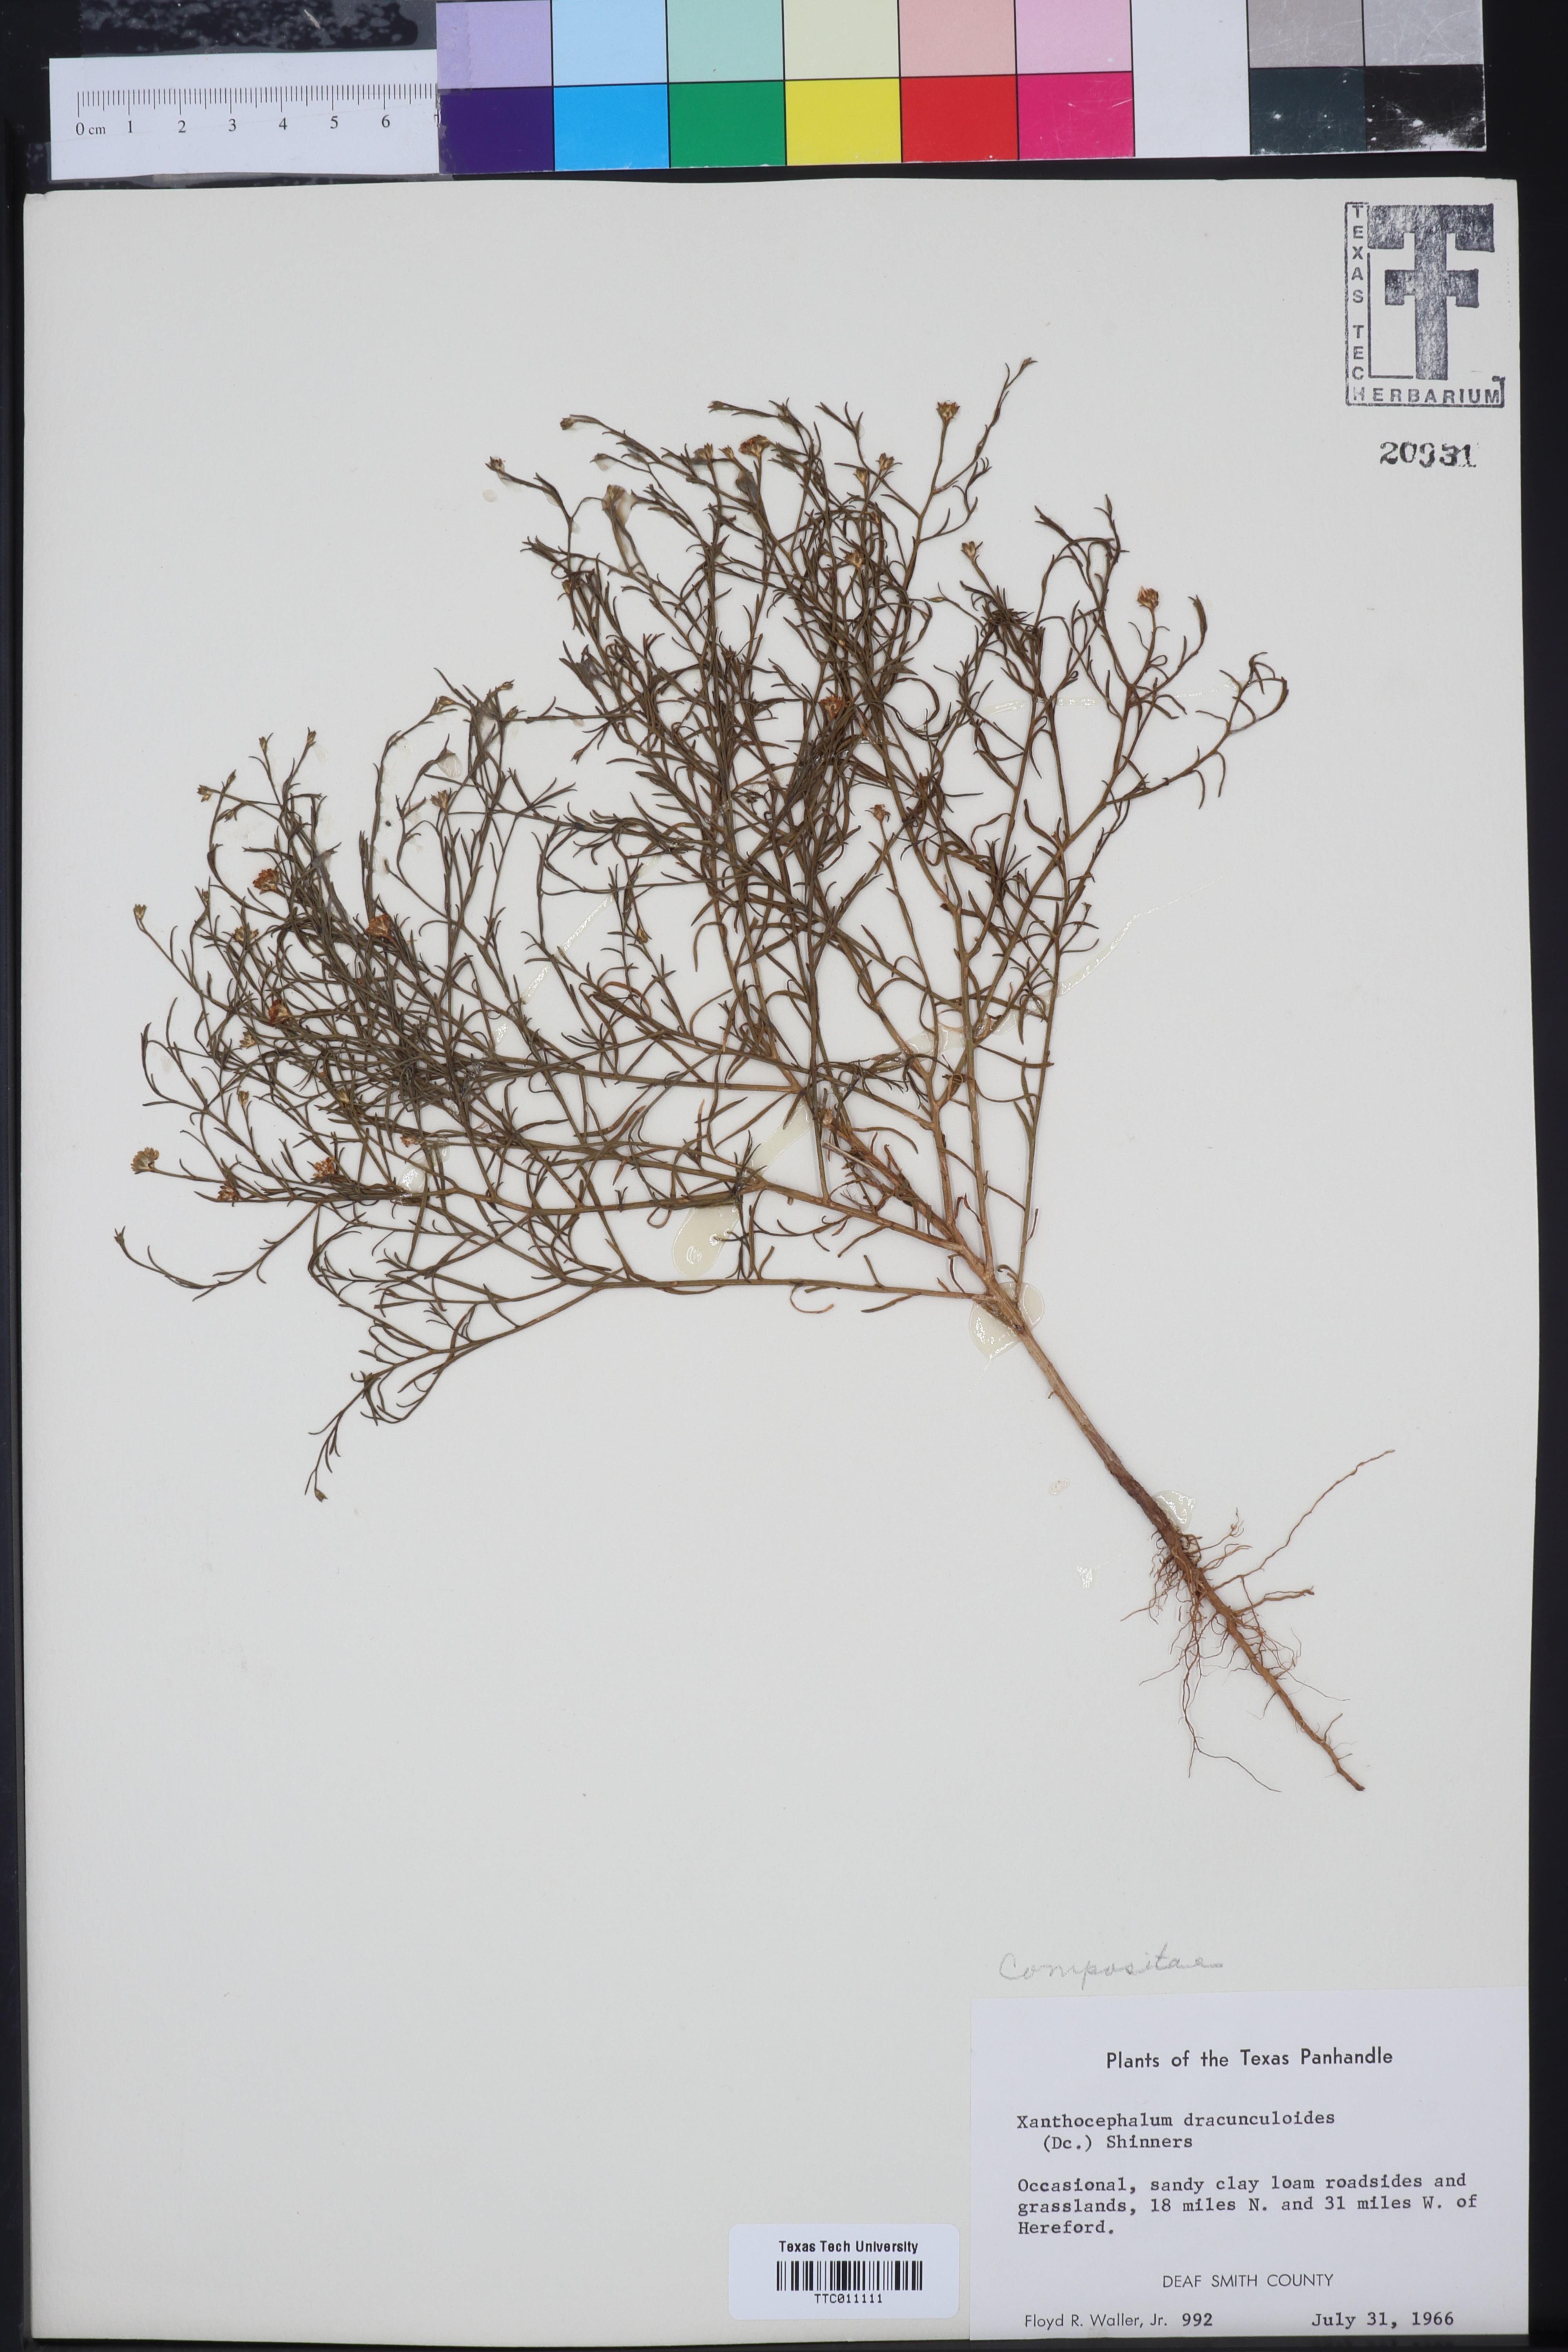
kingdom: Plantae
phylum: Tracheophyta
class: Magnoliopsida
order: Asterales
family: Asteraceae
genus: Amphiachyris
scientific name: Amphiachyris dracunculoides
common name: Broomweed
